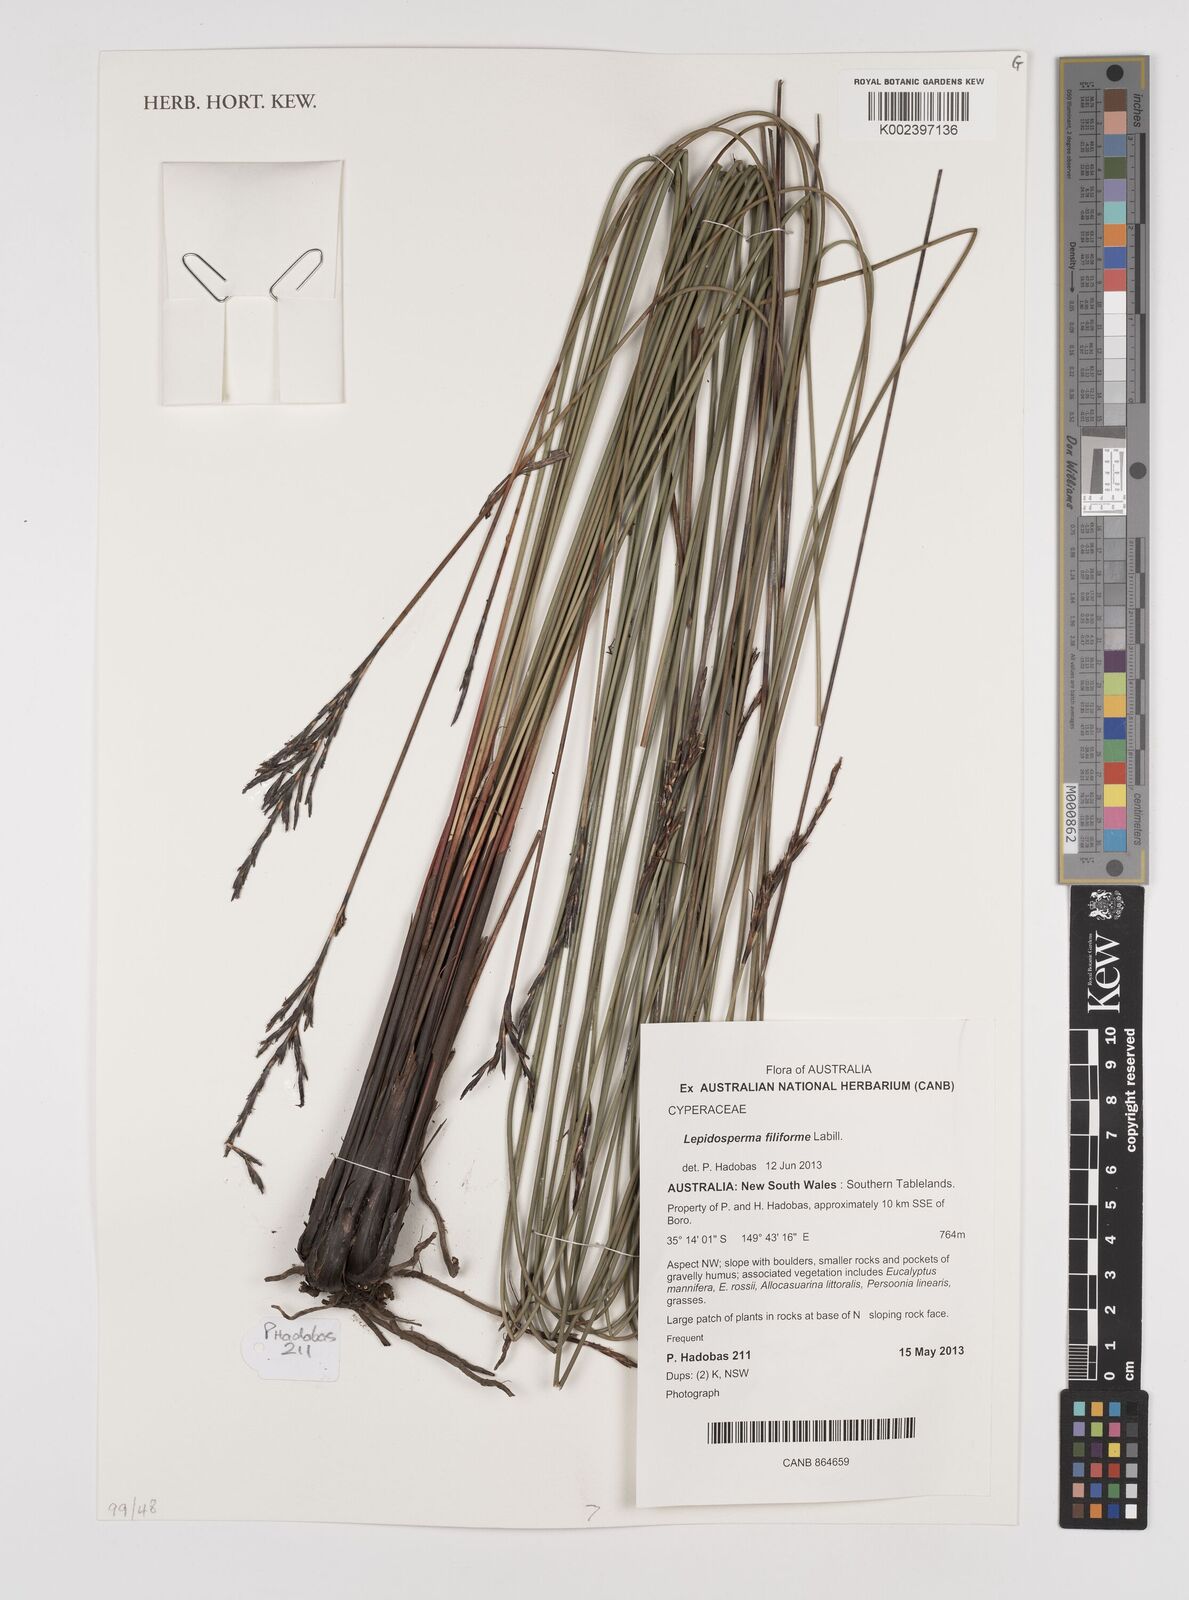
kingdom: Plantae
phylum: Tracheophyta
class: Liliopsida
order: Poales
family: Cyperaceae
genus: Lepidosperma
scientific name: Lepidosperma filiforme
